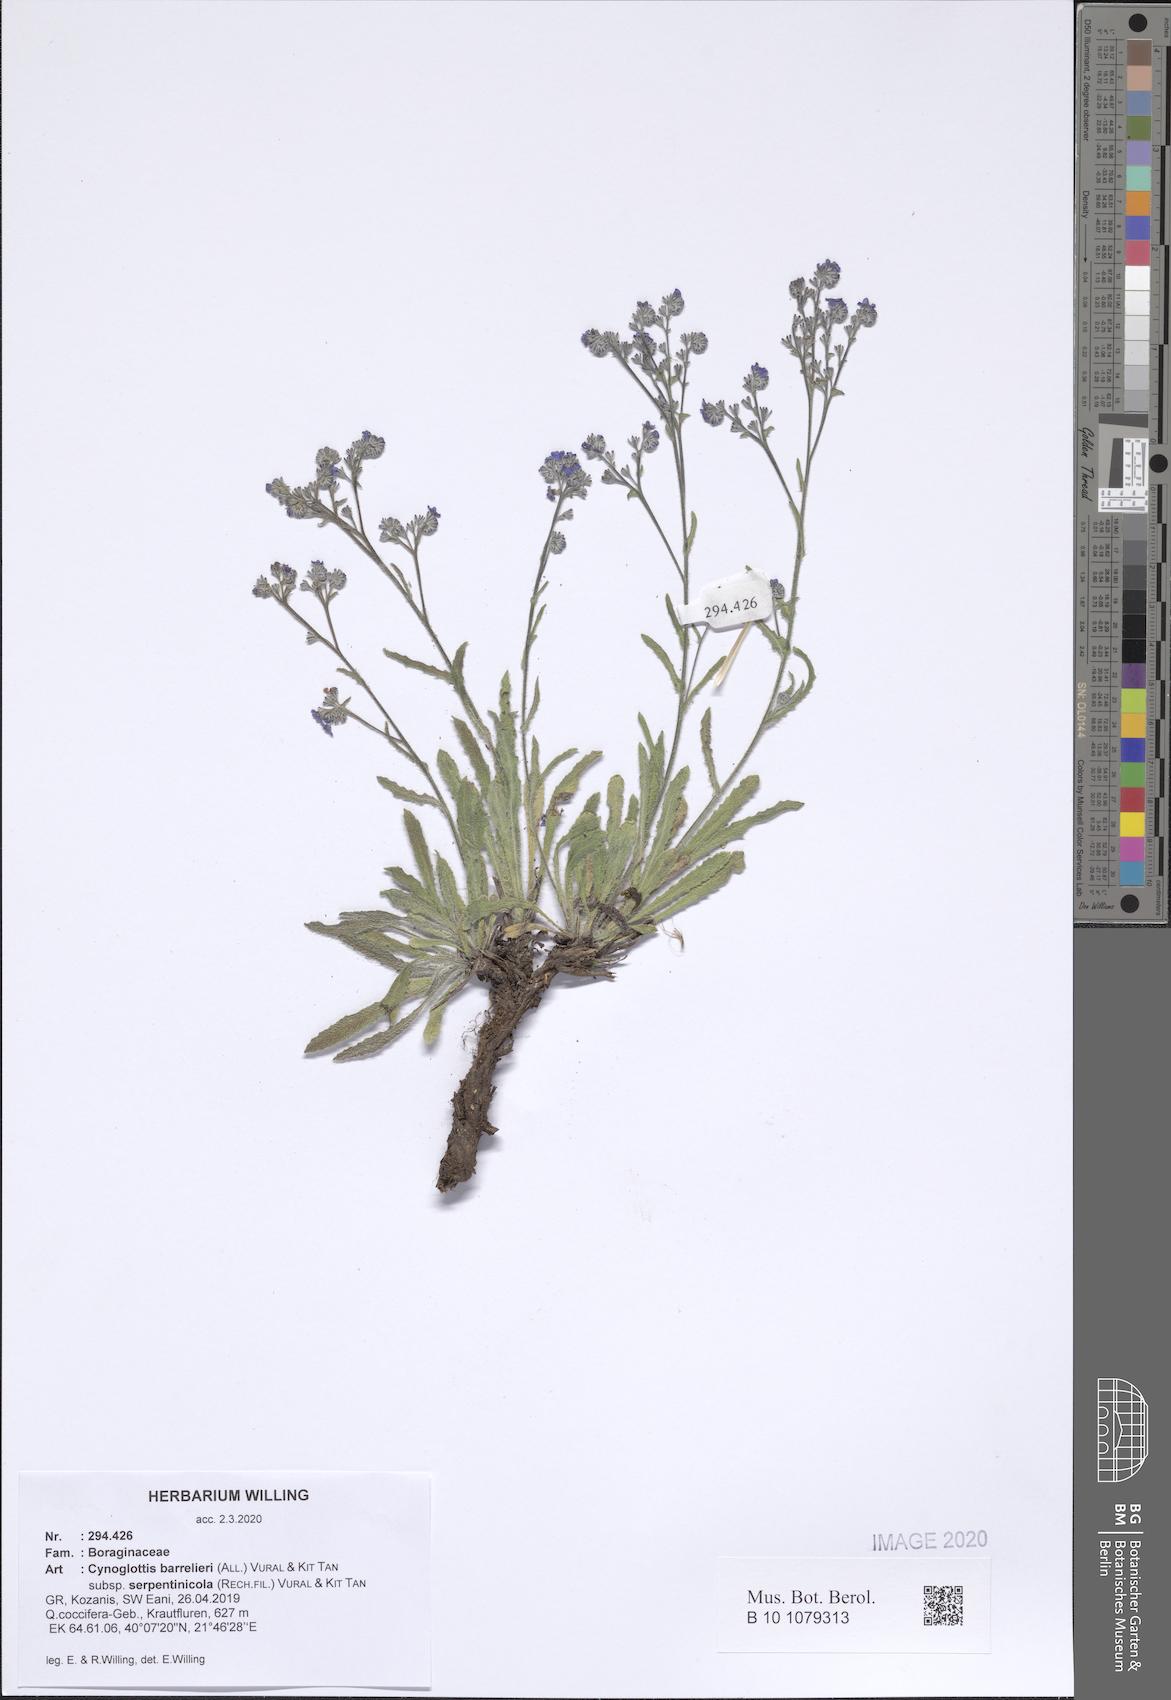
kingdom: Plantae
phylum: Tracheophyta
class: Magnoliopsida
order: Boraginales
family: Boraginaceae
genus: Cynoglottis
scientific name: Cynoglottis barrelieri
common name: False alkanet
